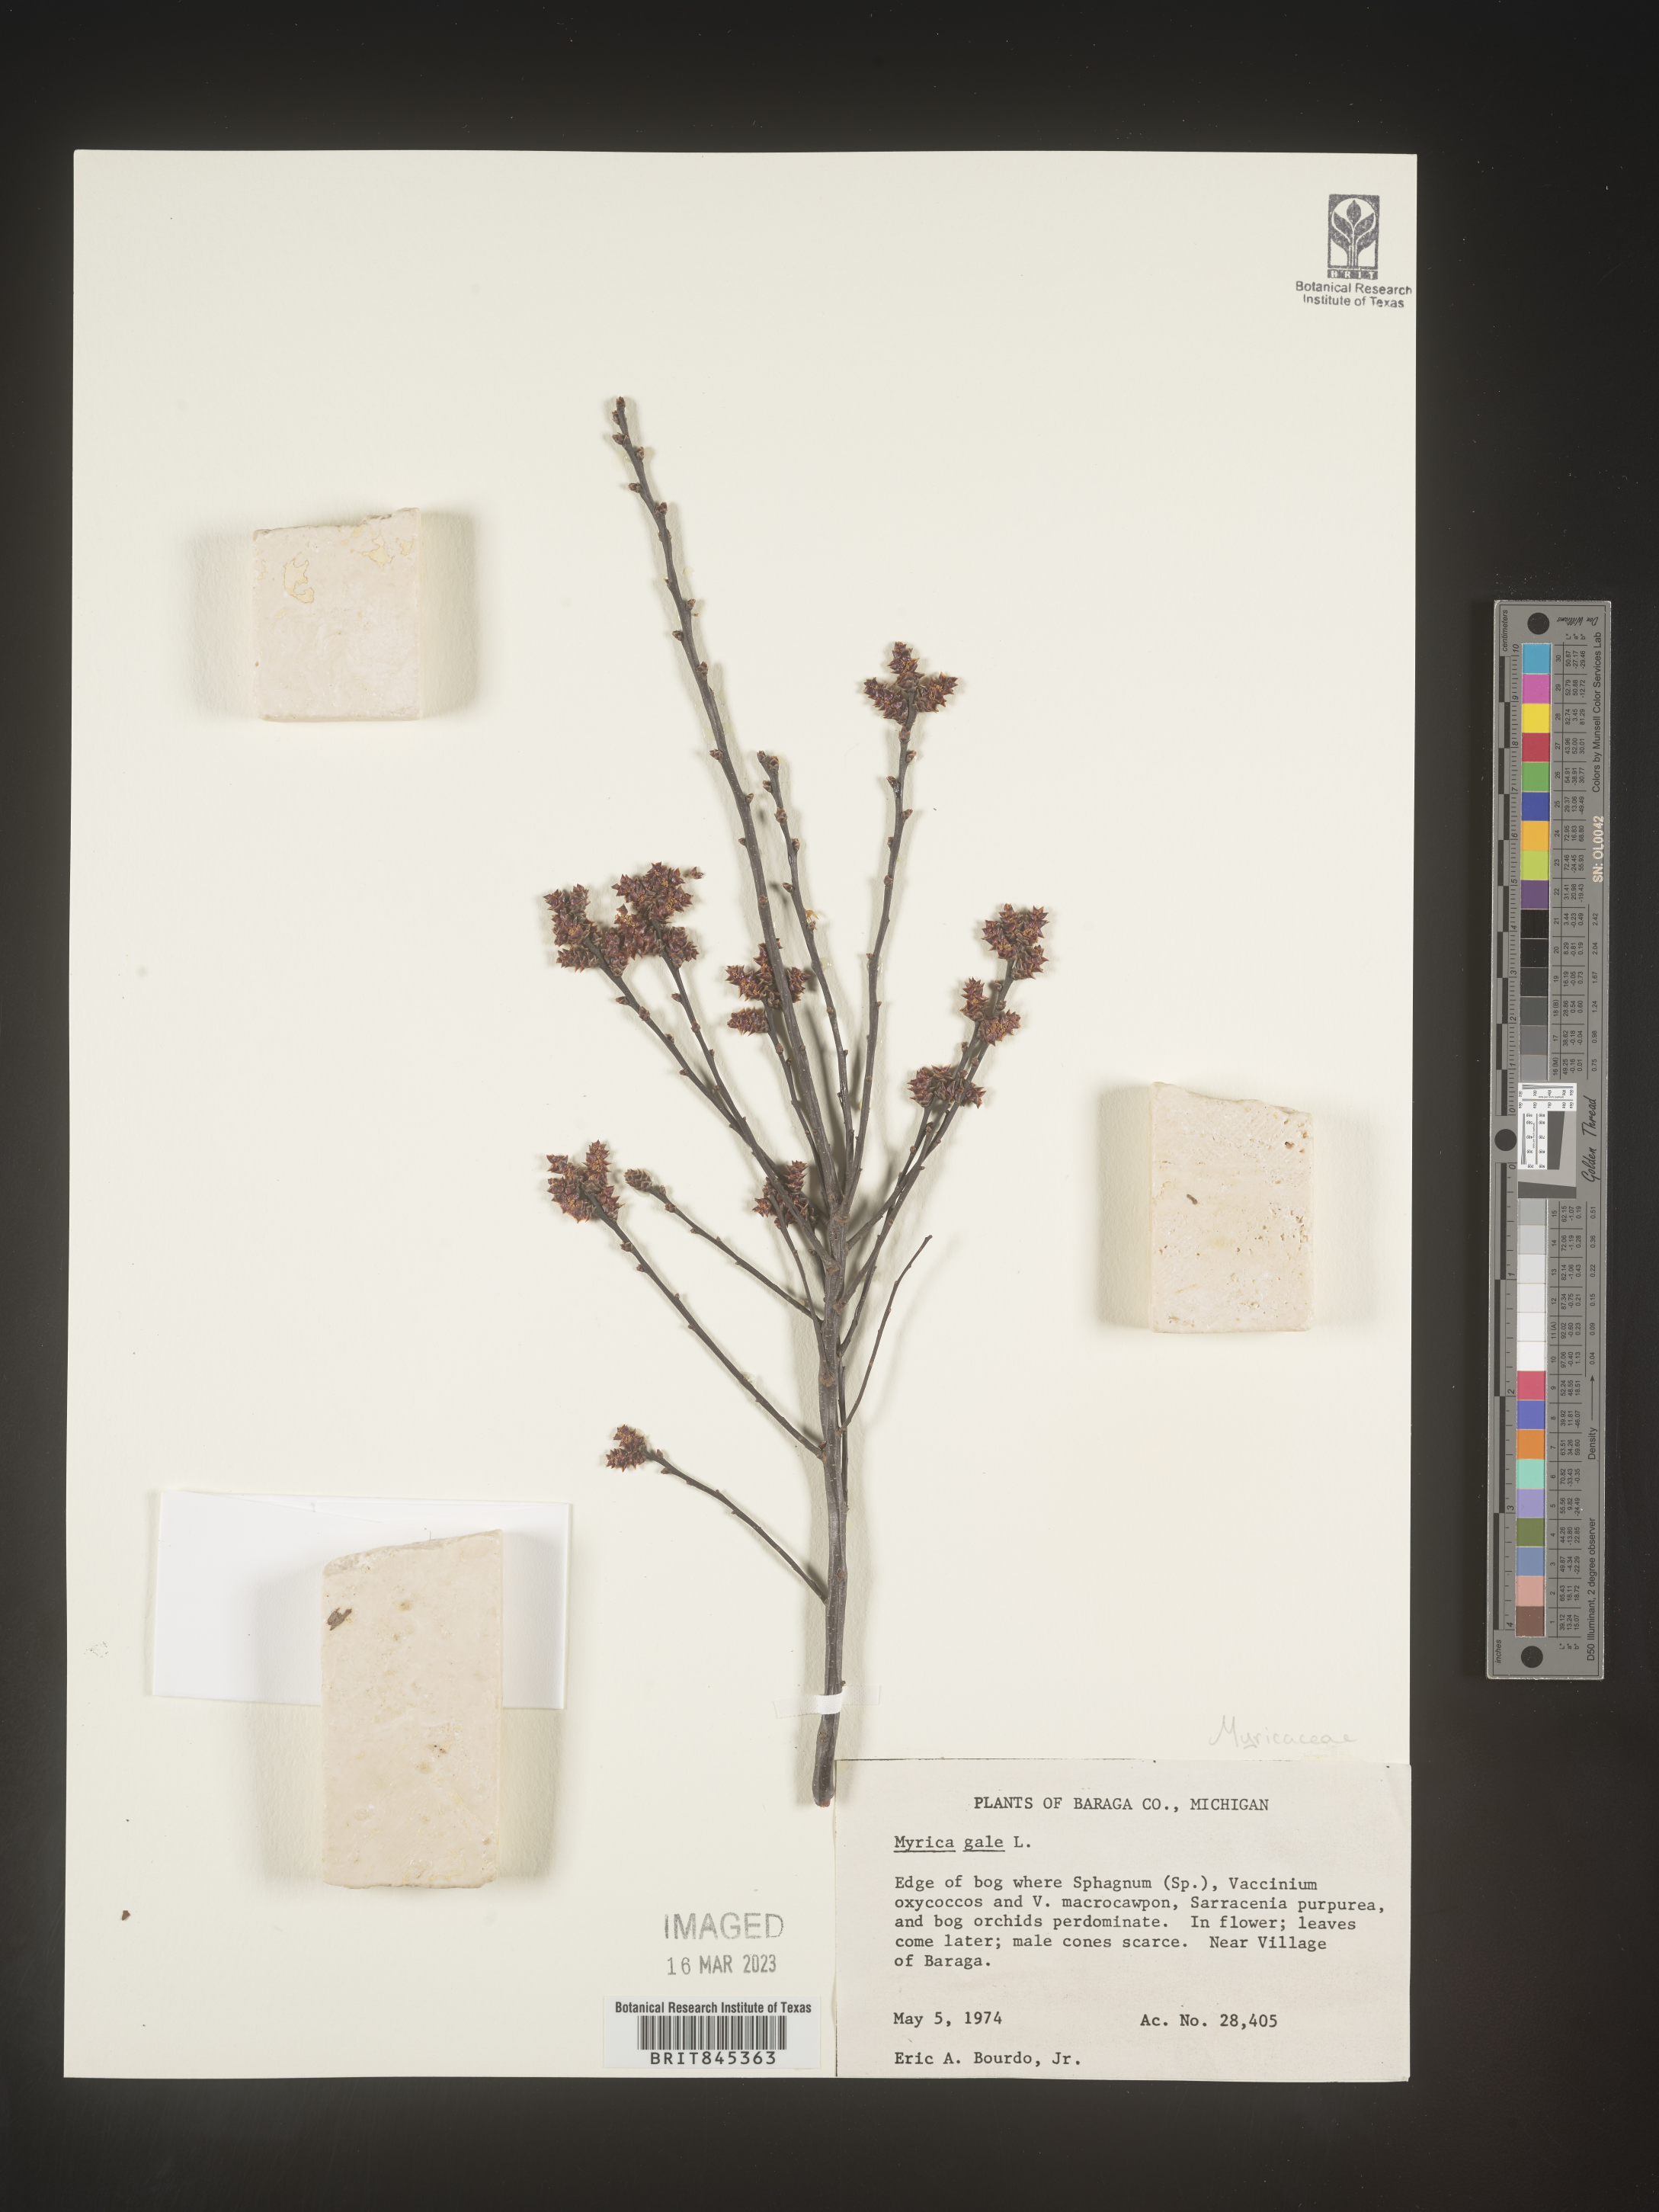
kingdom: Plantae
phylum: Tracheophyta
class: Magnoliopsida
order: Fagales
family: Myricaceae
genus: Myrica
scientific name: Myrica gale
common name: Sweet gale
